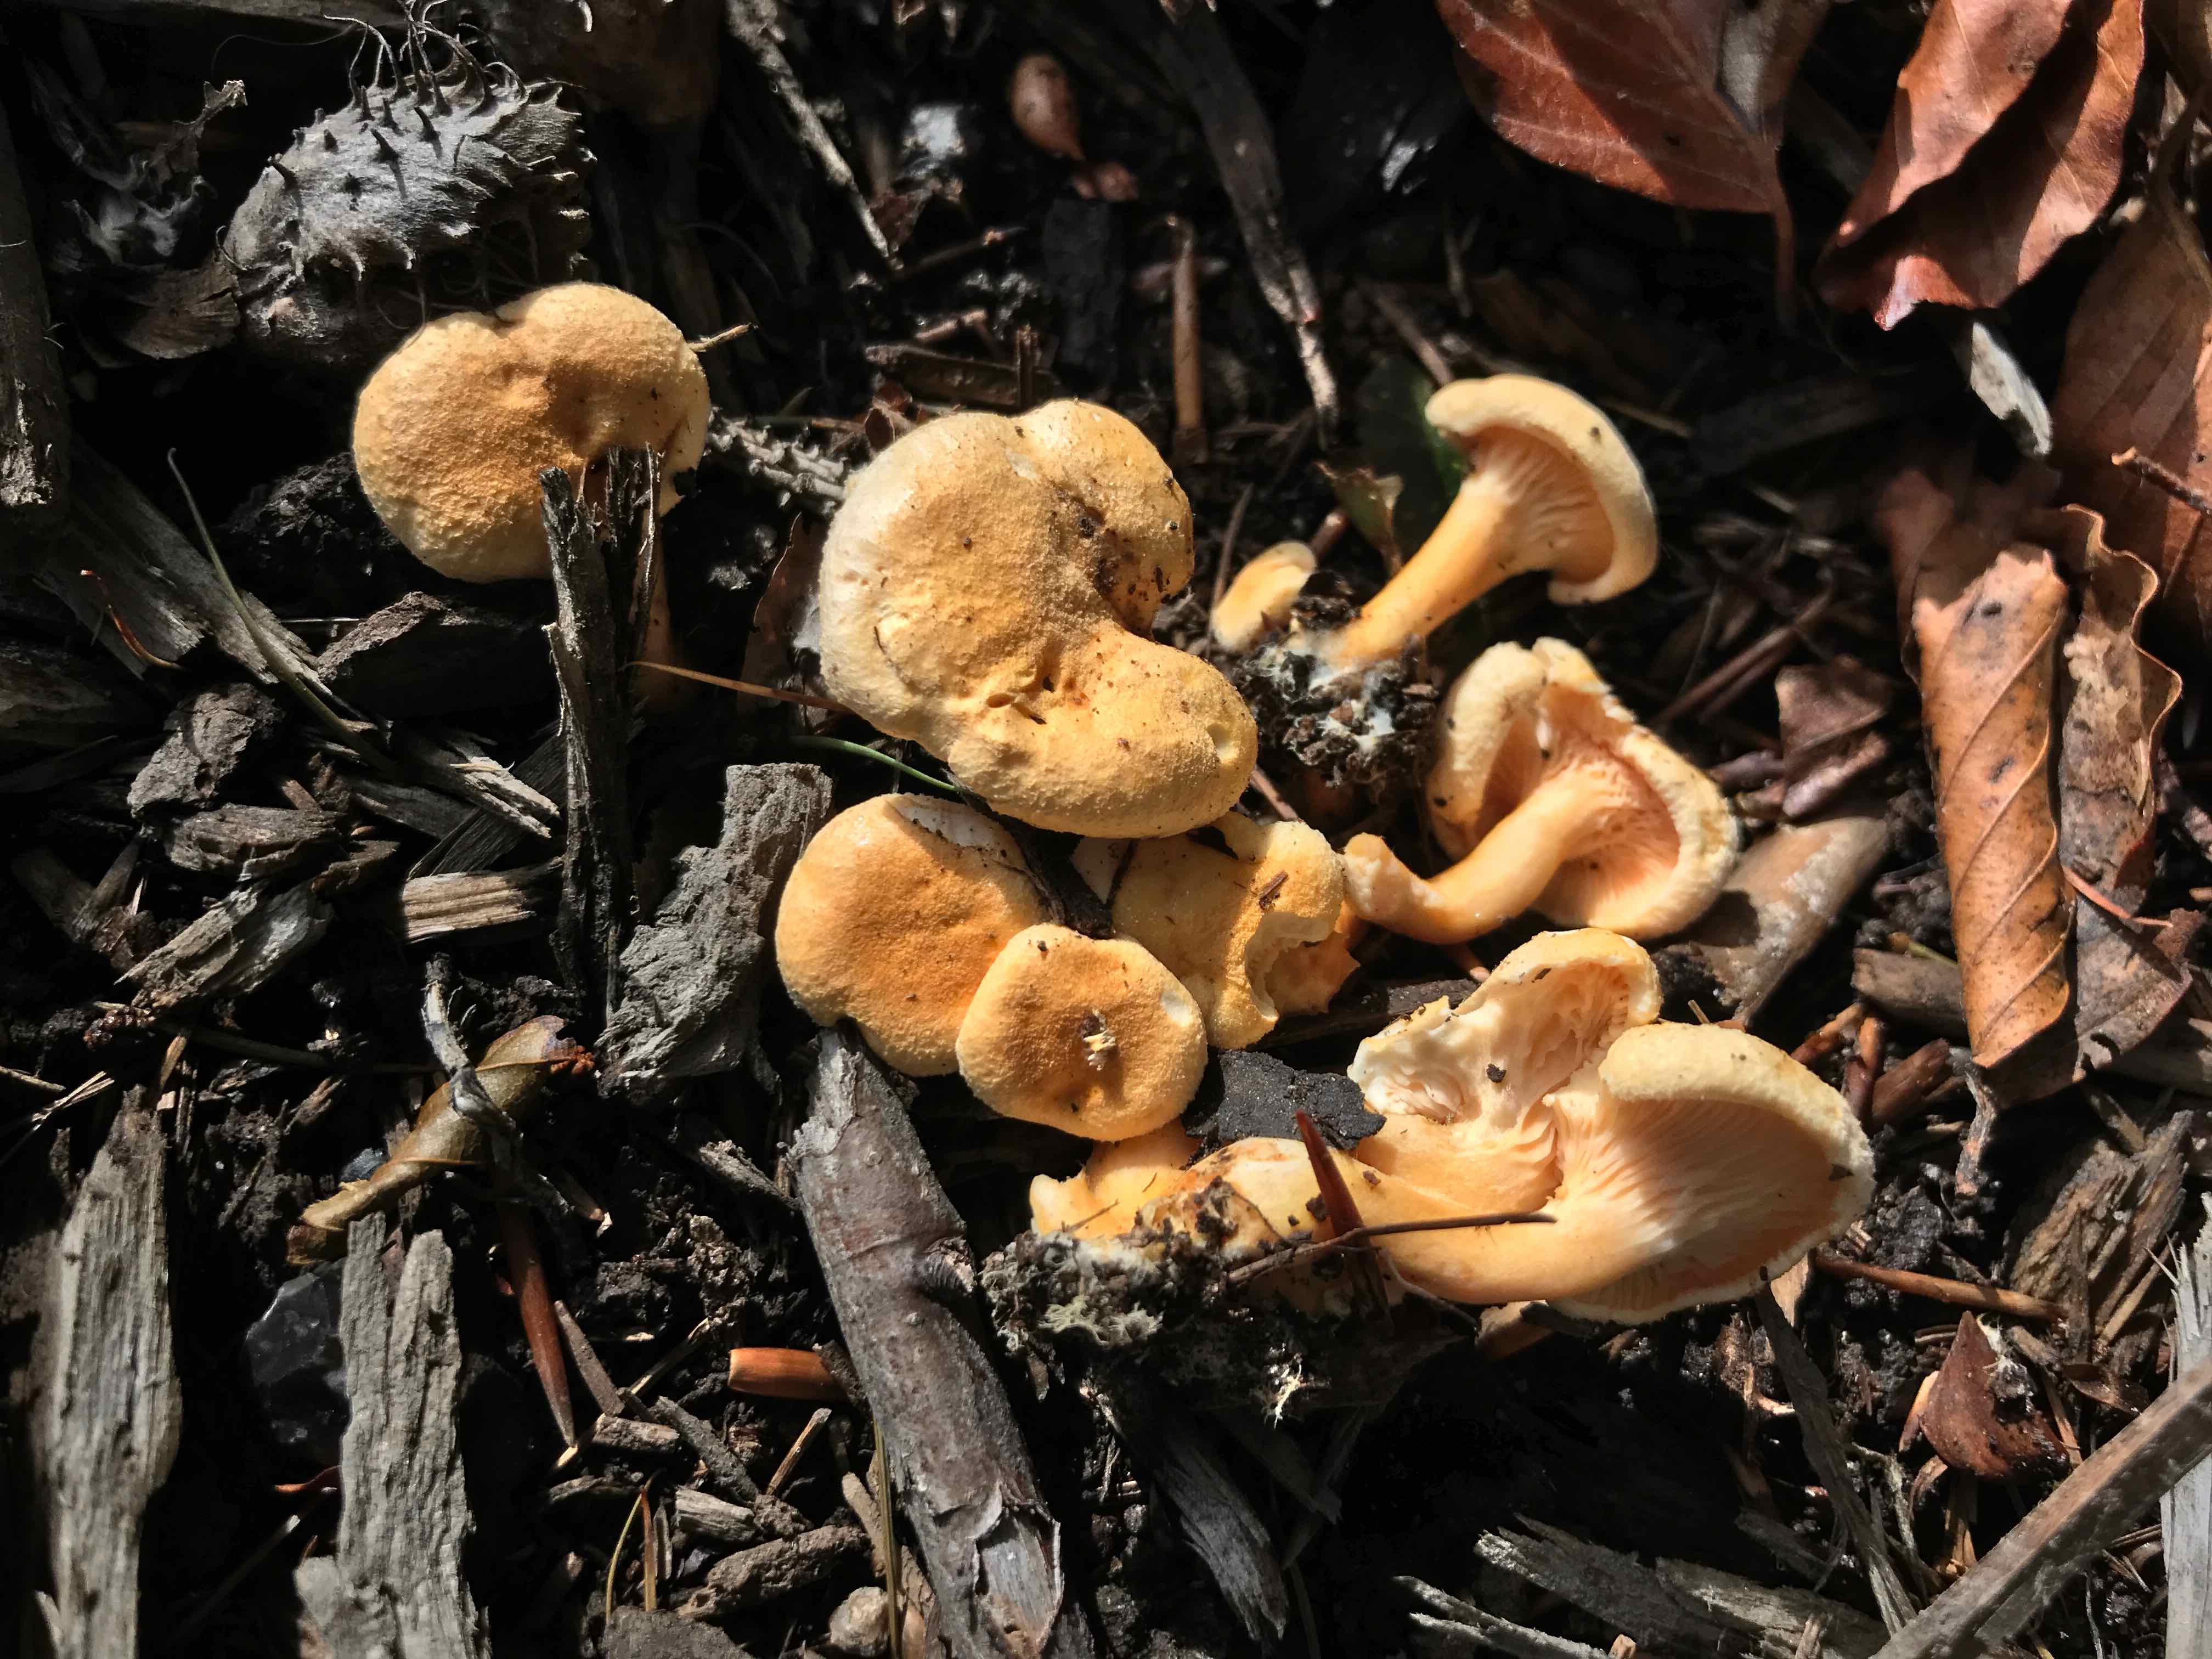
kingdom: Fungi
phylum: Basidiomycota
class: Agaricomycetes
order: Boletales
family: Hygrophoropsidaceae
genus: Hygrophoropsis
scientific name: Hygrophoropsis aurantiaca
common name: almindelig orangekantarel
